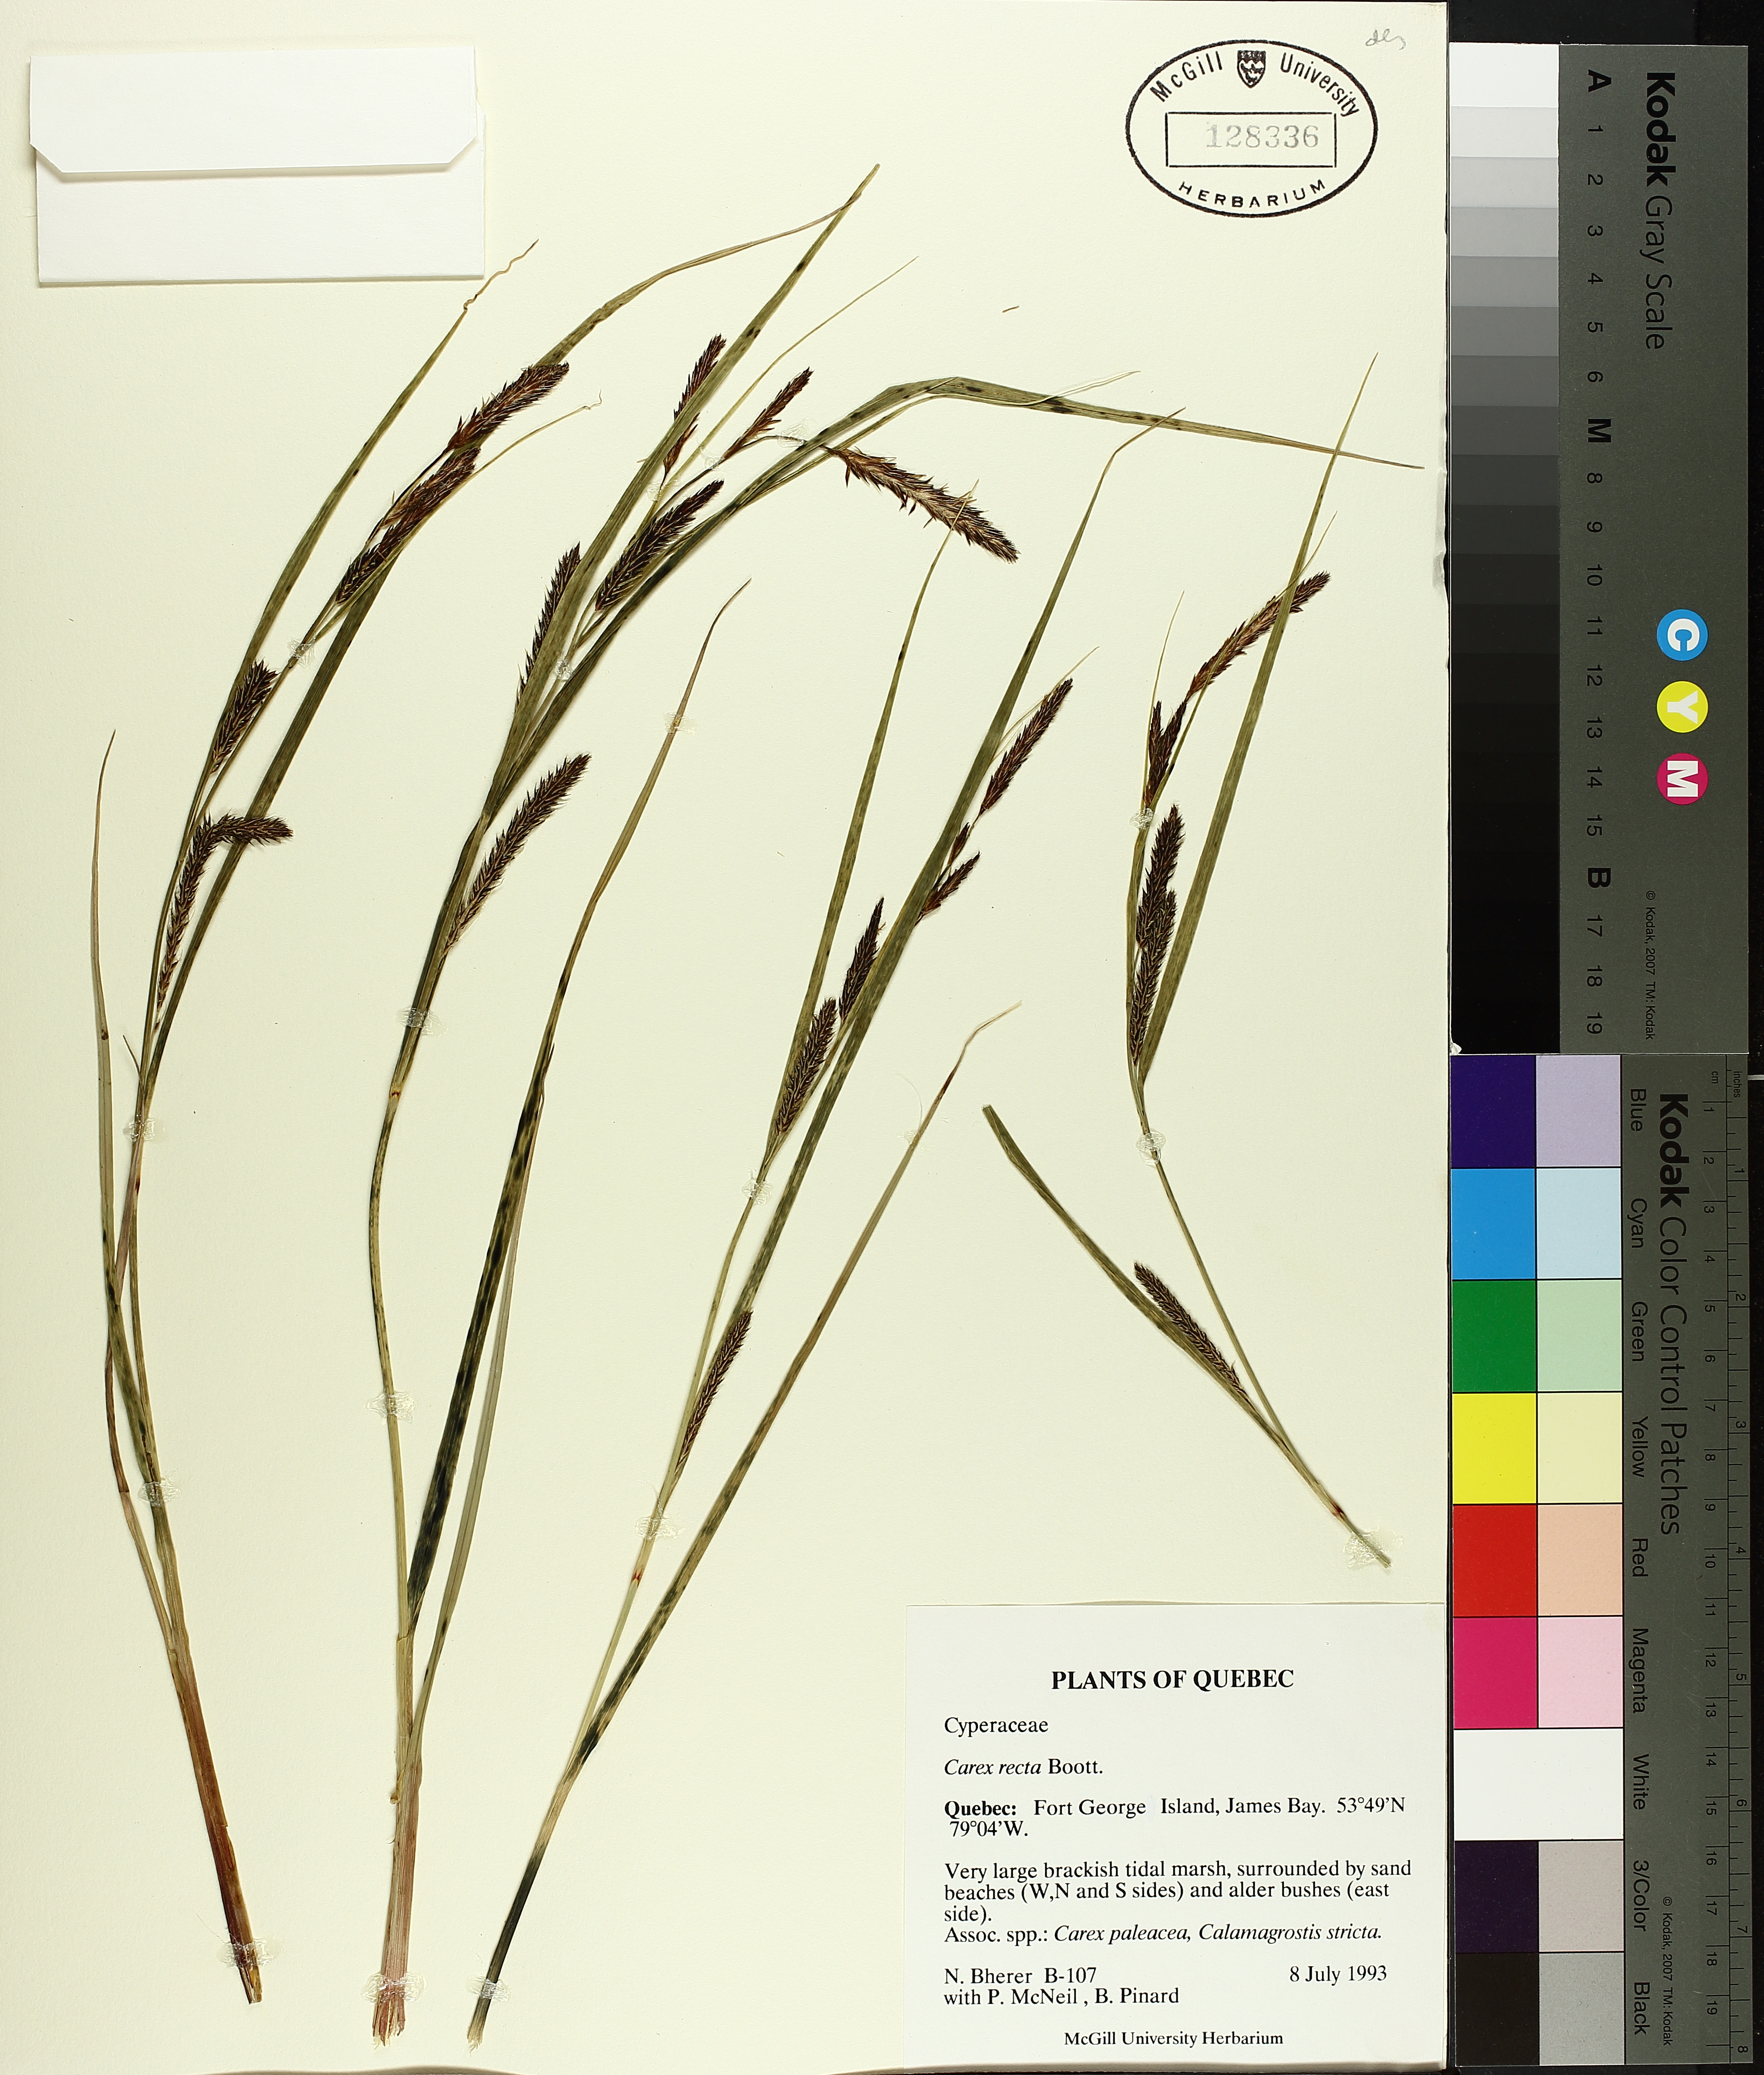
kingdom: Plantae
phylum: Tracheophyta
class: Liliopsida
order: Poales
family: Cyperaceae
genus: Carex
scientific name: Carex recta
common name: Estuarine sedge
